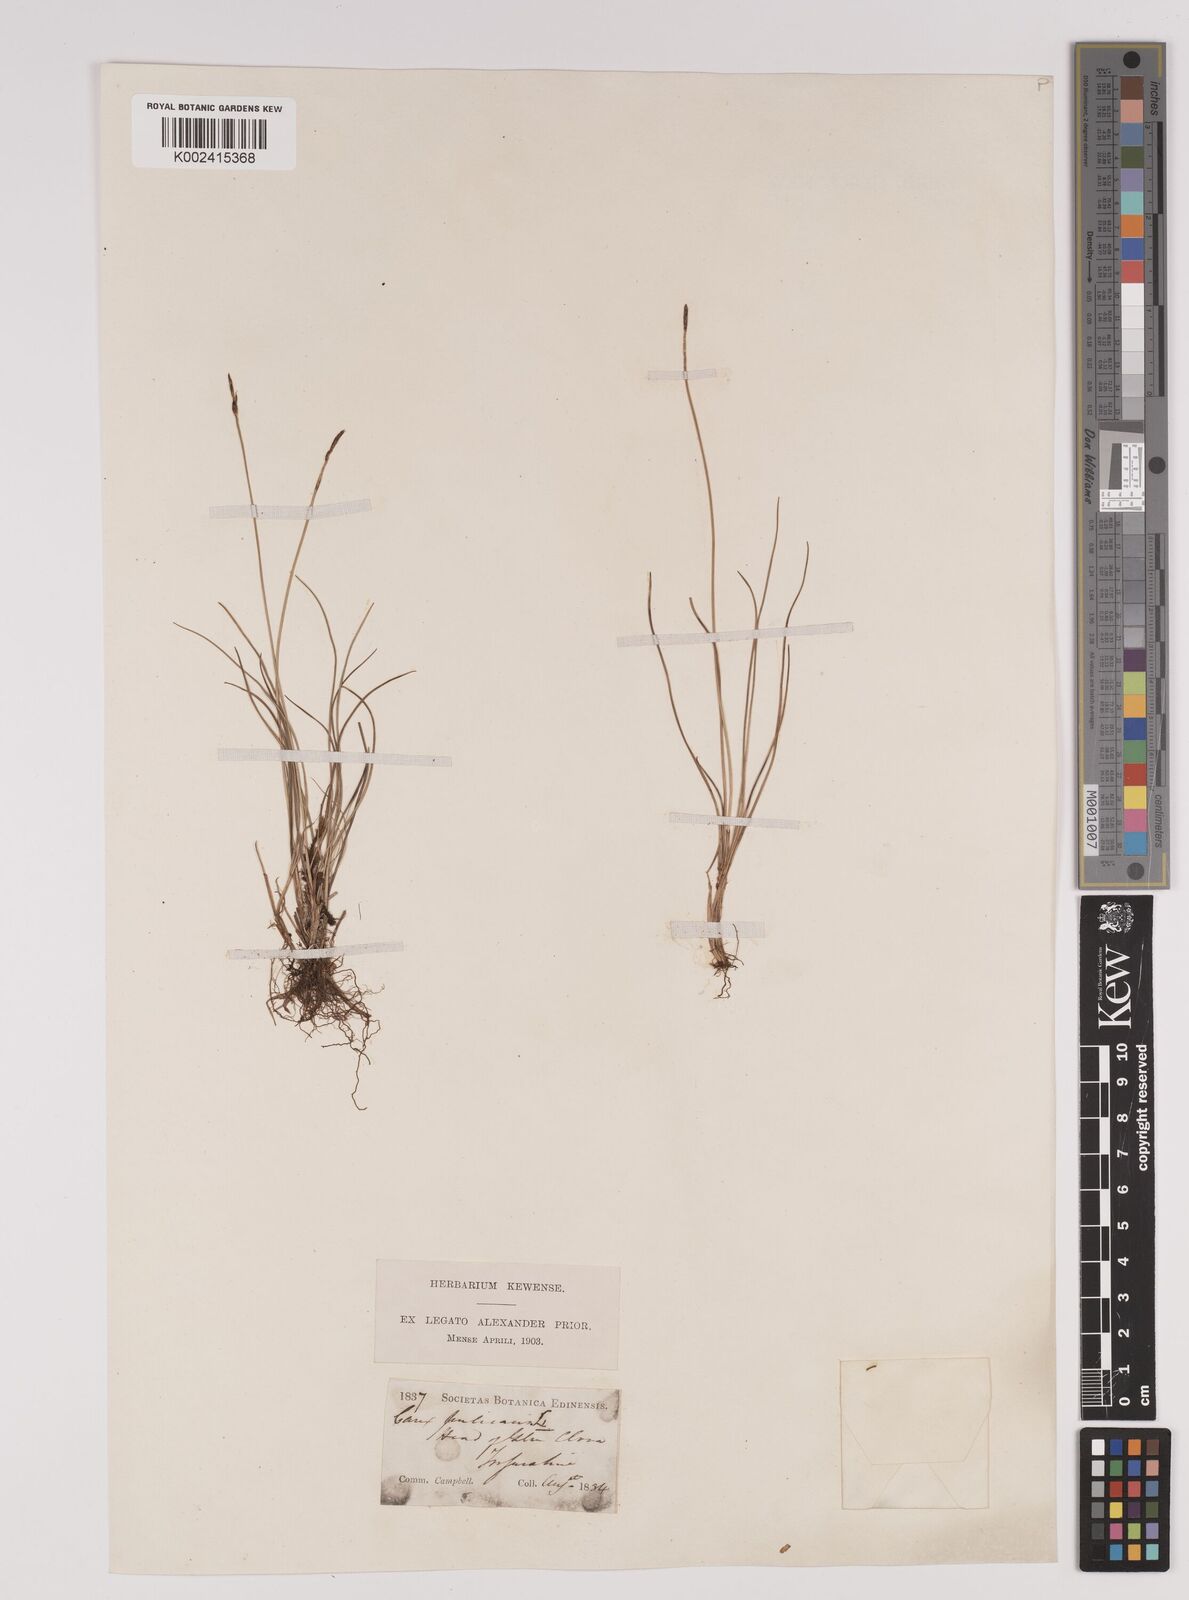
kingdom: Plantae
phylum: Tracheophyta
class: Liliopsida
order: Poales
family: Cyperaceae
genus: Carex
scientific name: Carex pulicaris
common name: Flea sedge
